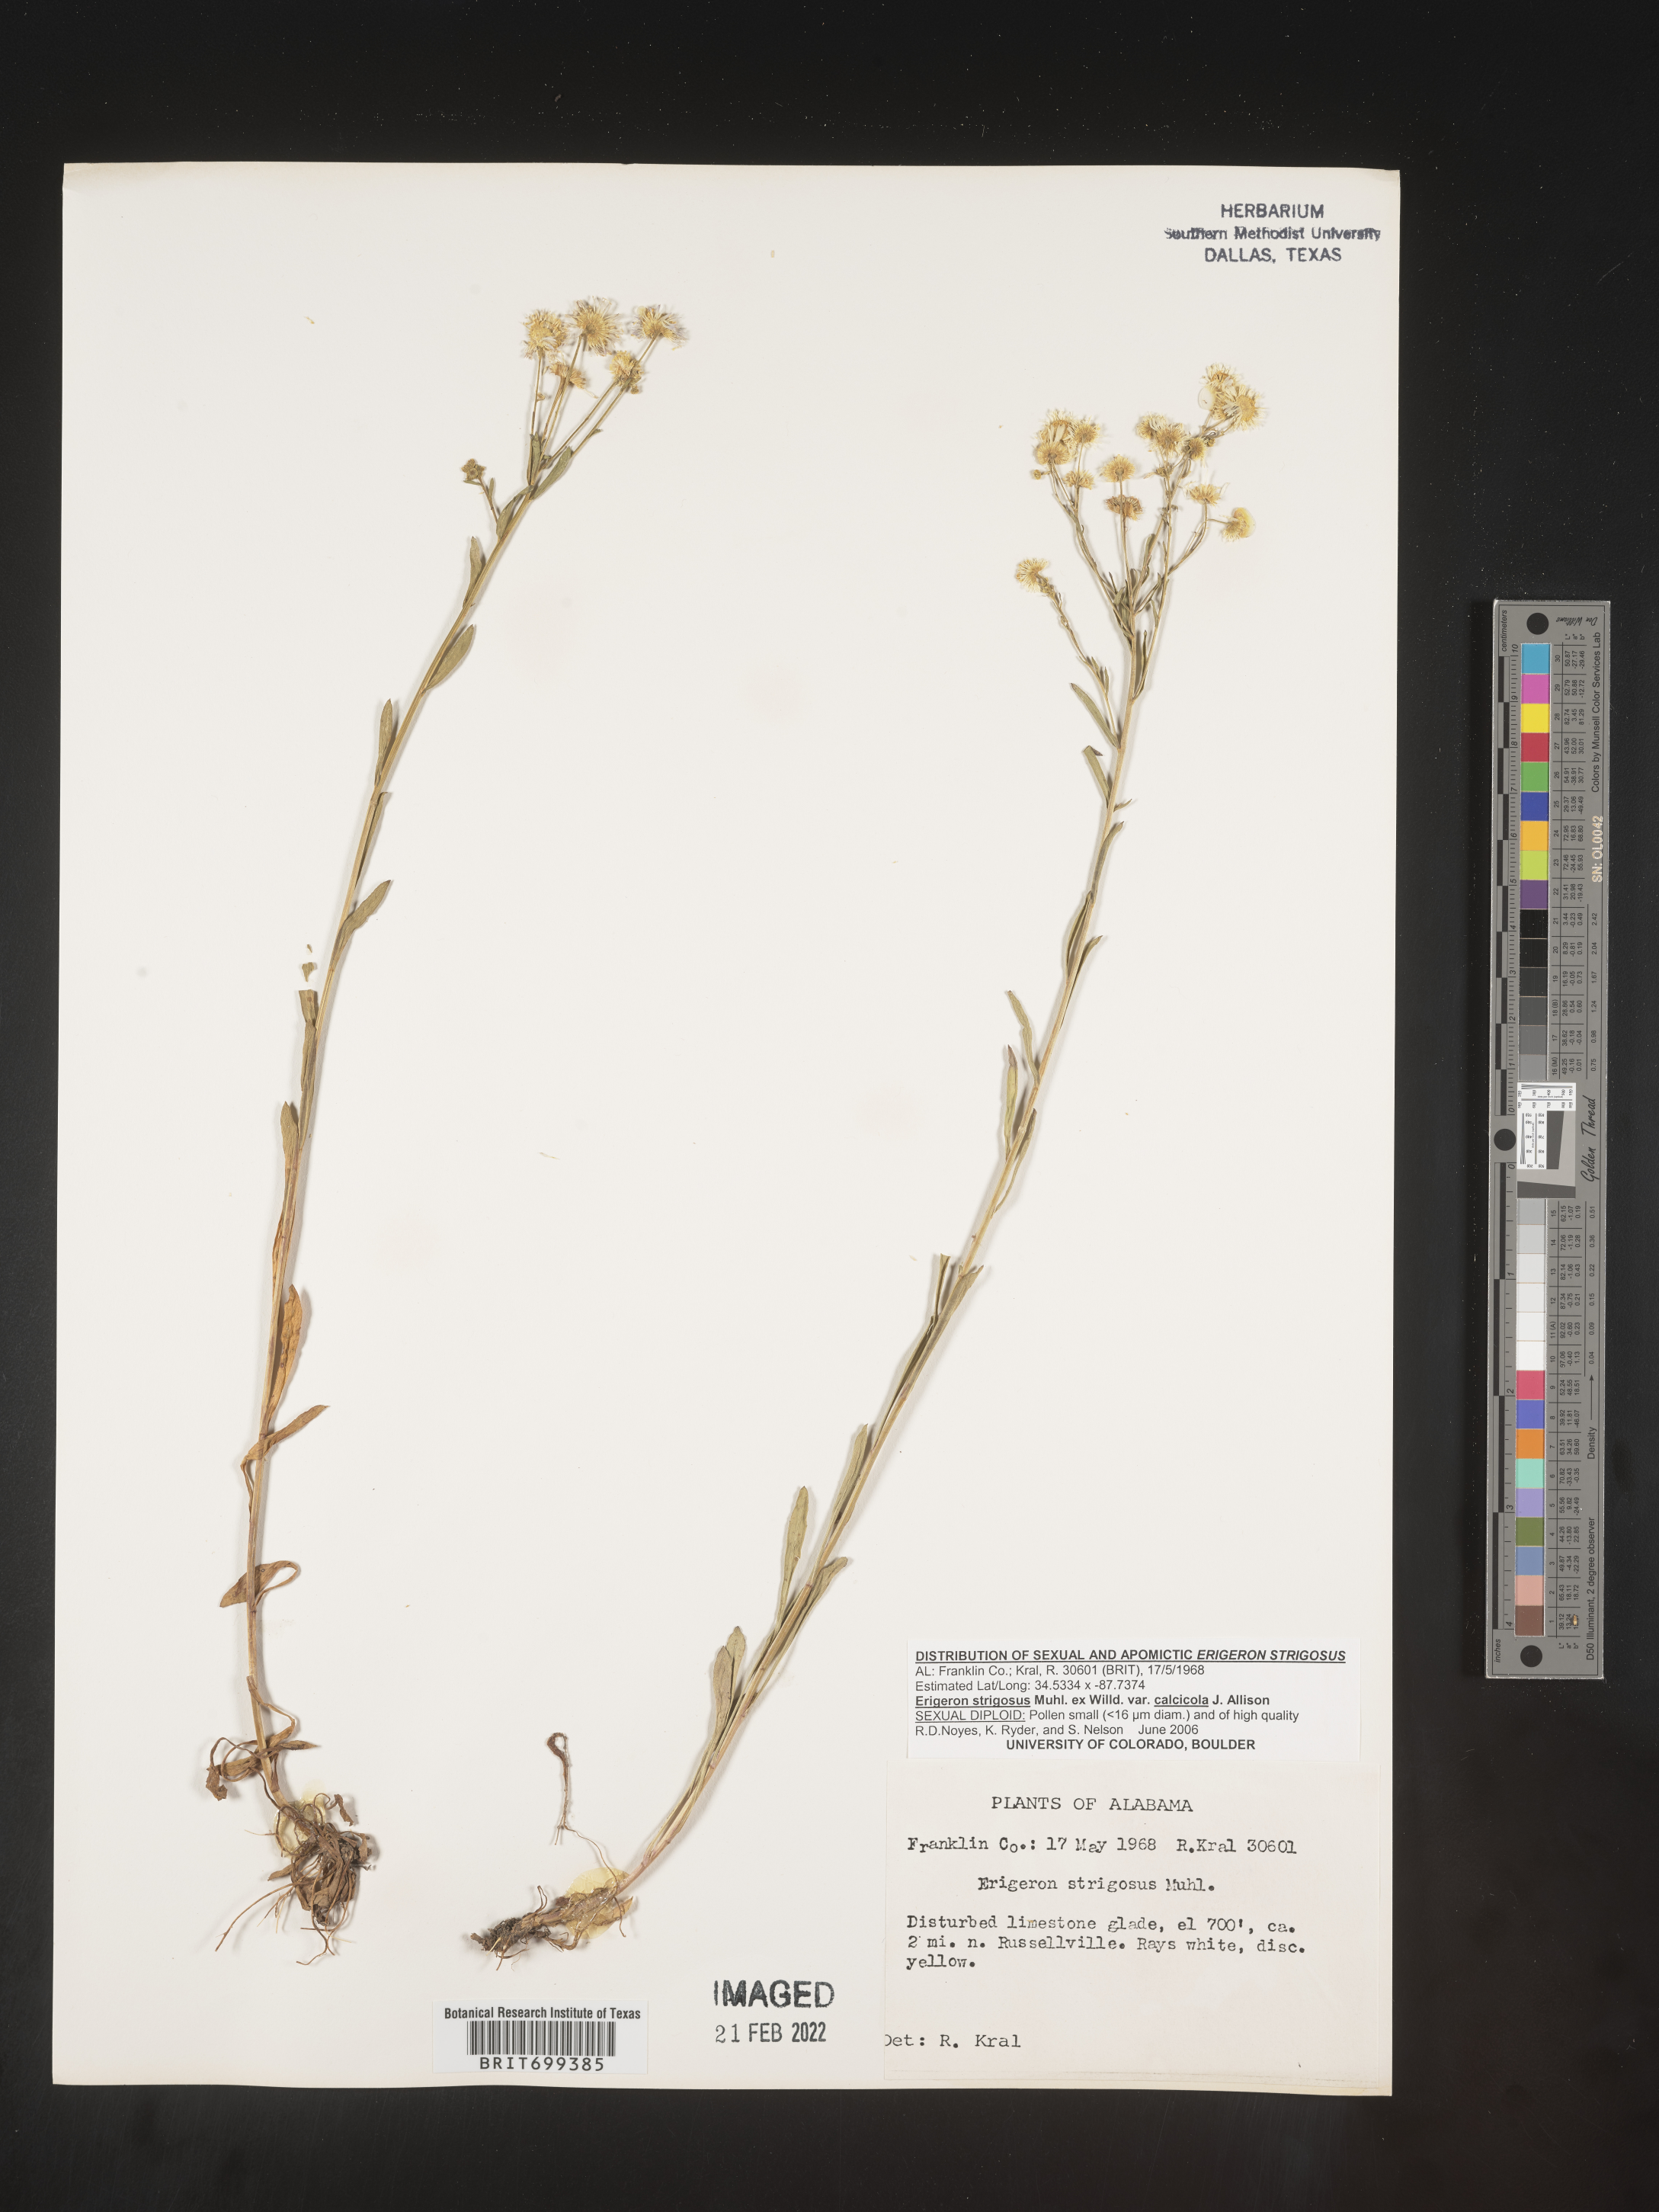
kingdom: Plantae
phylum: Tracheophyta
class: Magnoliopsida
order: Asterales
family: Asteraceae
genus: Erigeron
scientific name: Erigeron strigosus
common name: Common eastern fleabane
